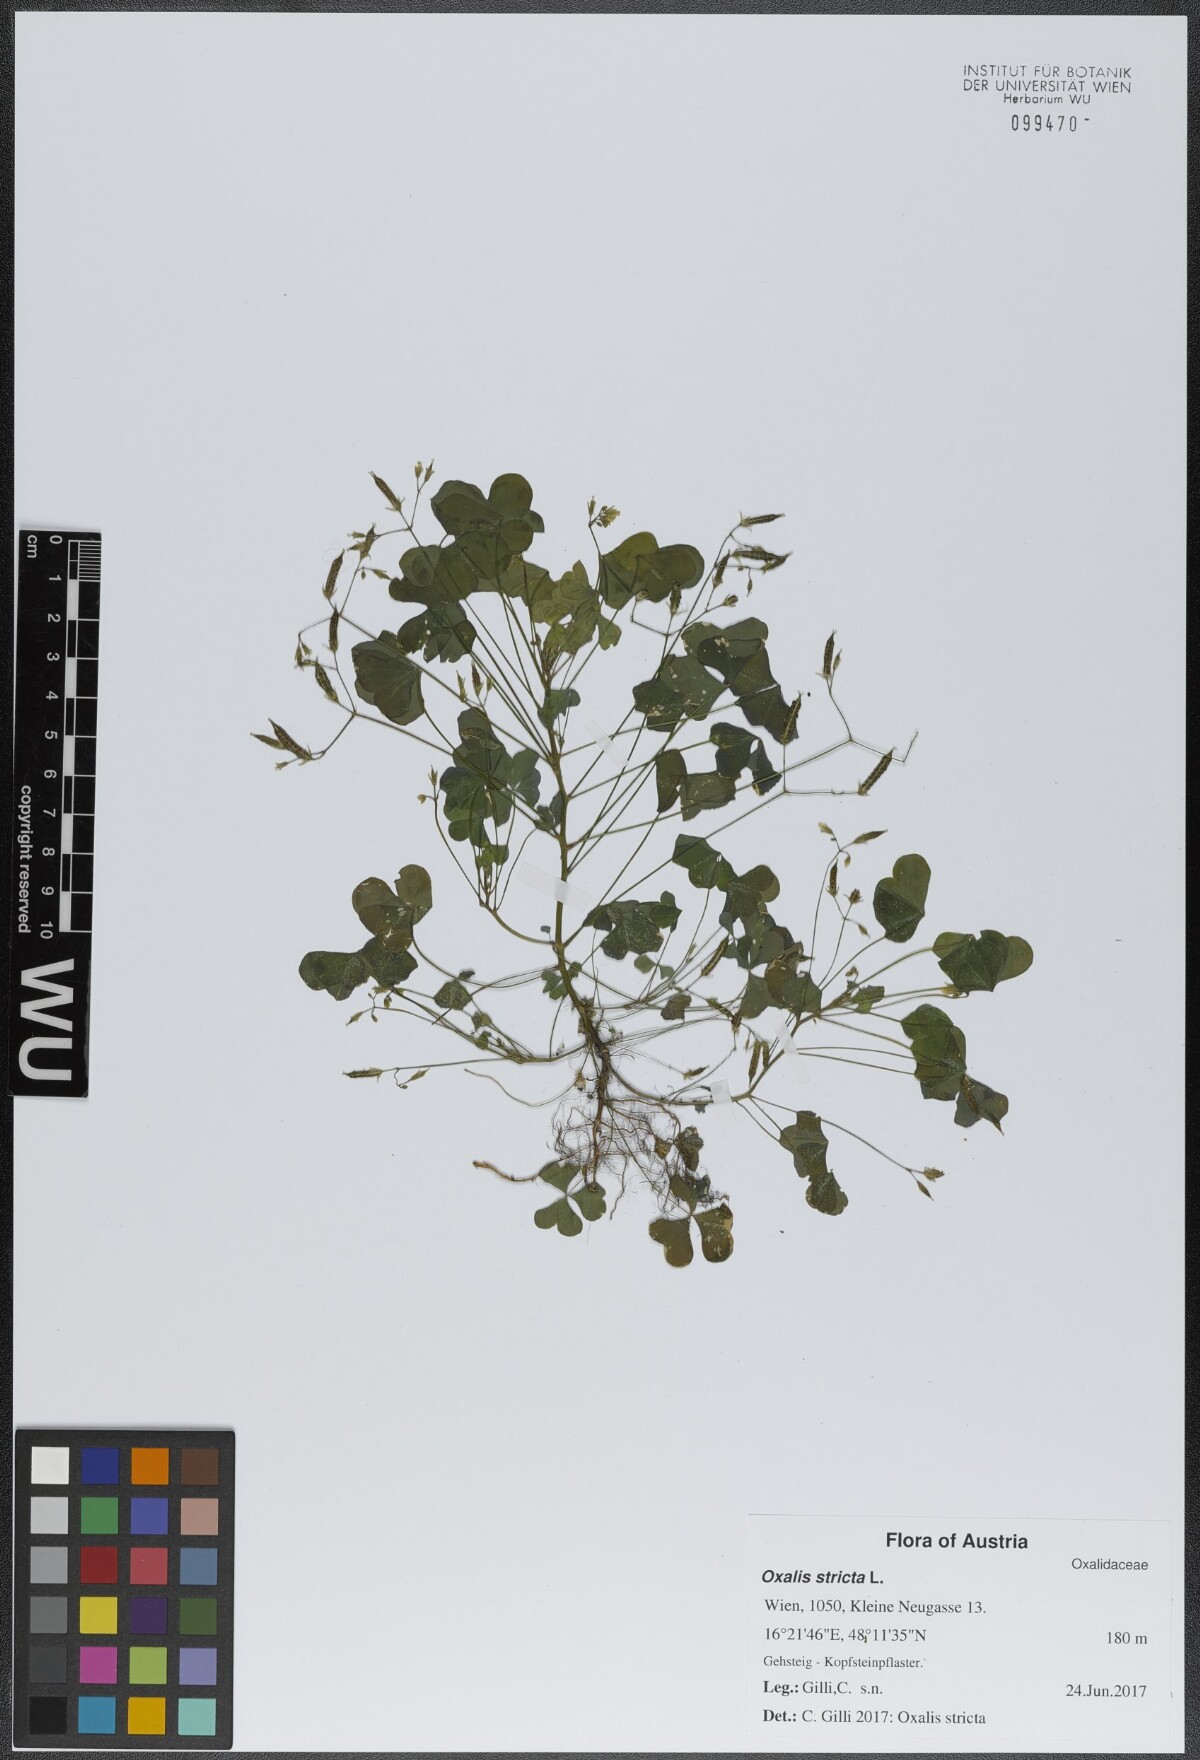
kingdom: Plantae
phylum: Tracheophyta
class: Magnoliopsida
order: Oxalidales
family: Oxalidaceae
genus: Oxalis
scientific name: Oxalis stricta
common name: Upright yellow-sorrel
